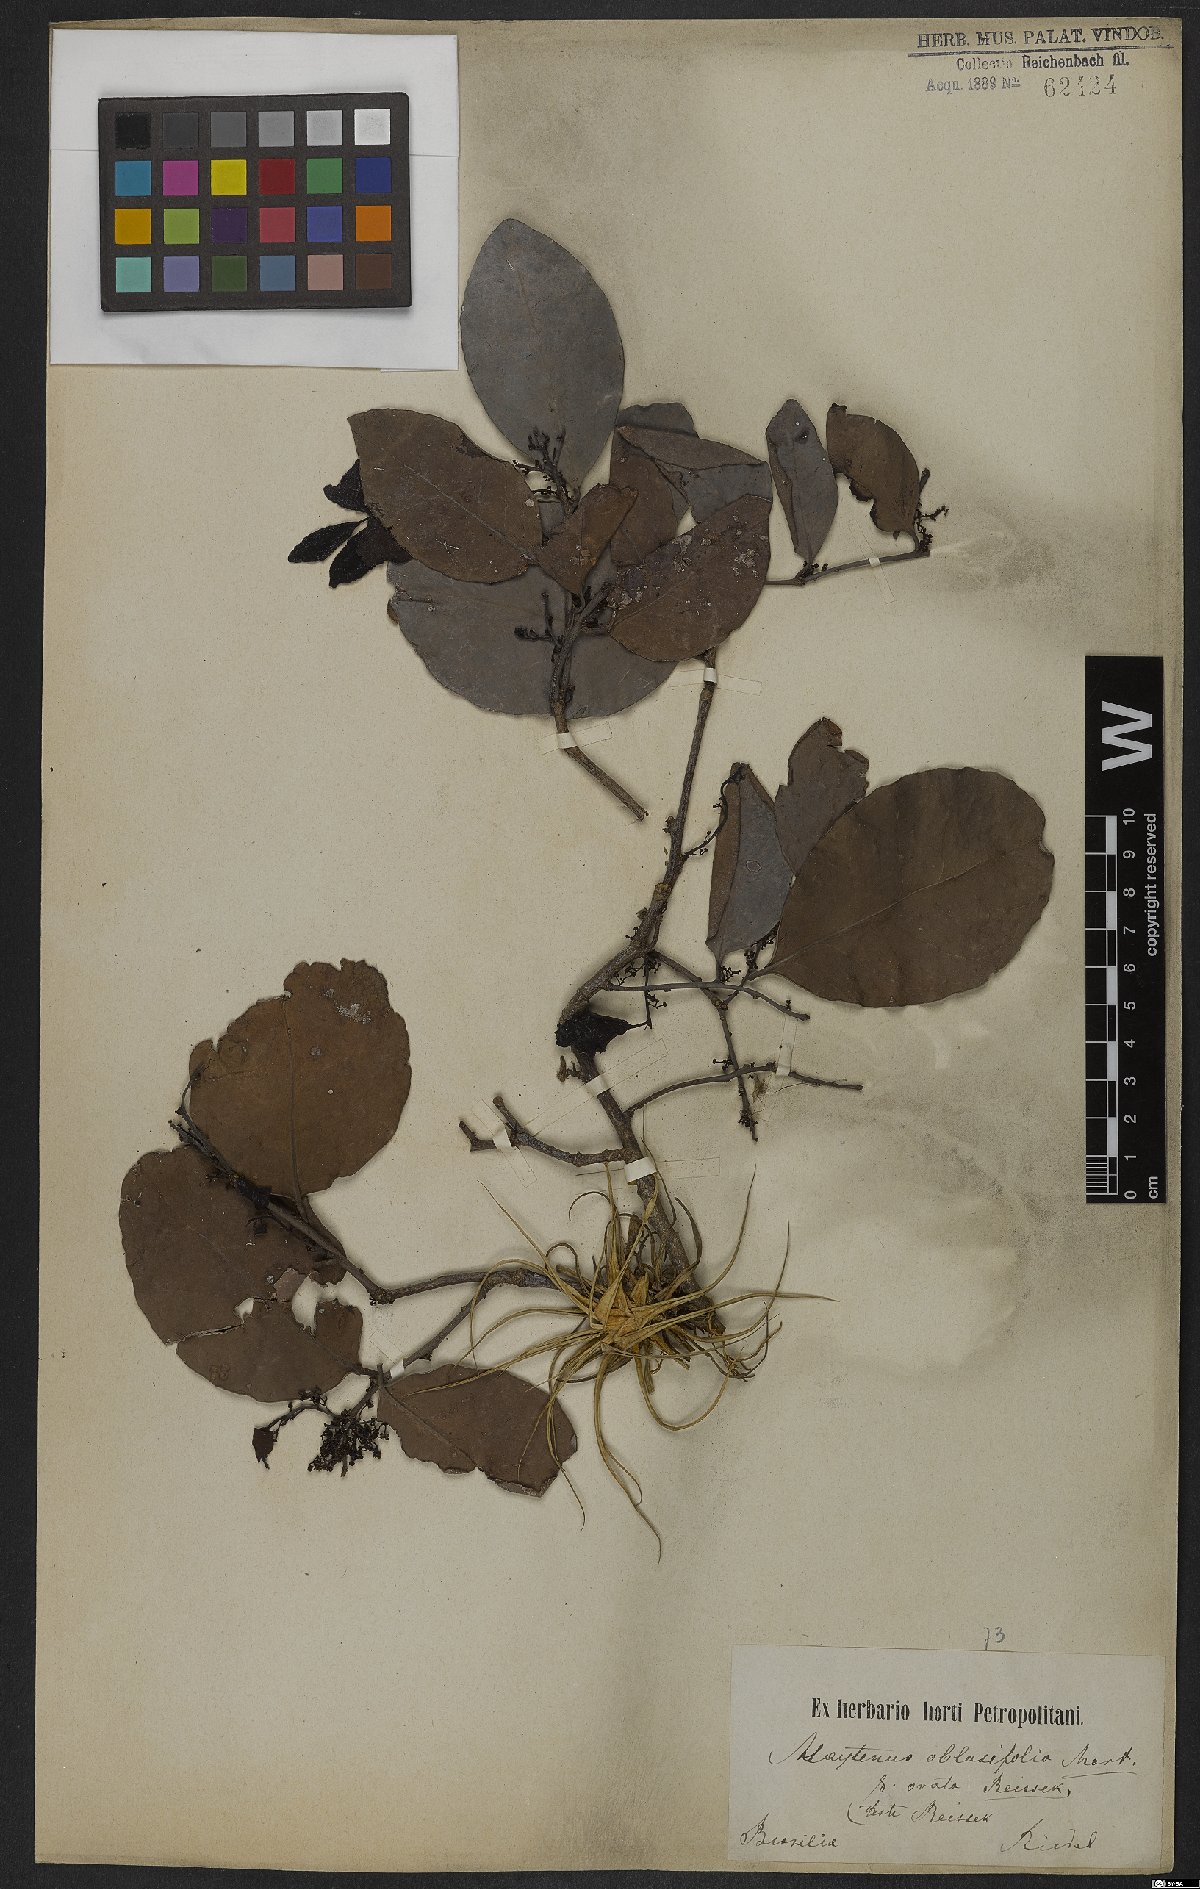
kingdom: Plantae
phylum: Tracheophyta
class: Magnoliopsida
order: Celastrales
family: Celastraceae
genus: Monteverdia
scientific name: Monteverdia obtusifolia
